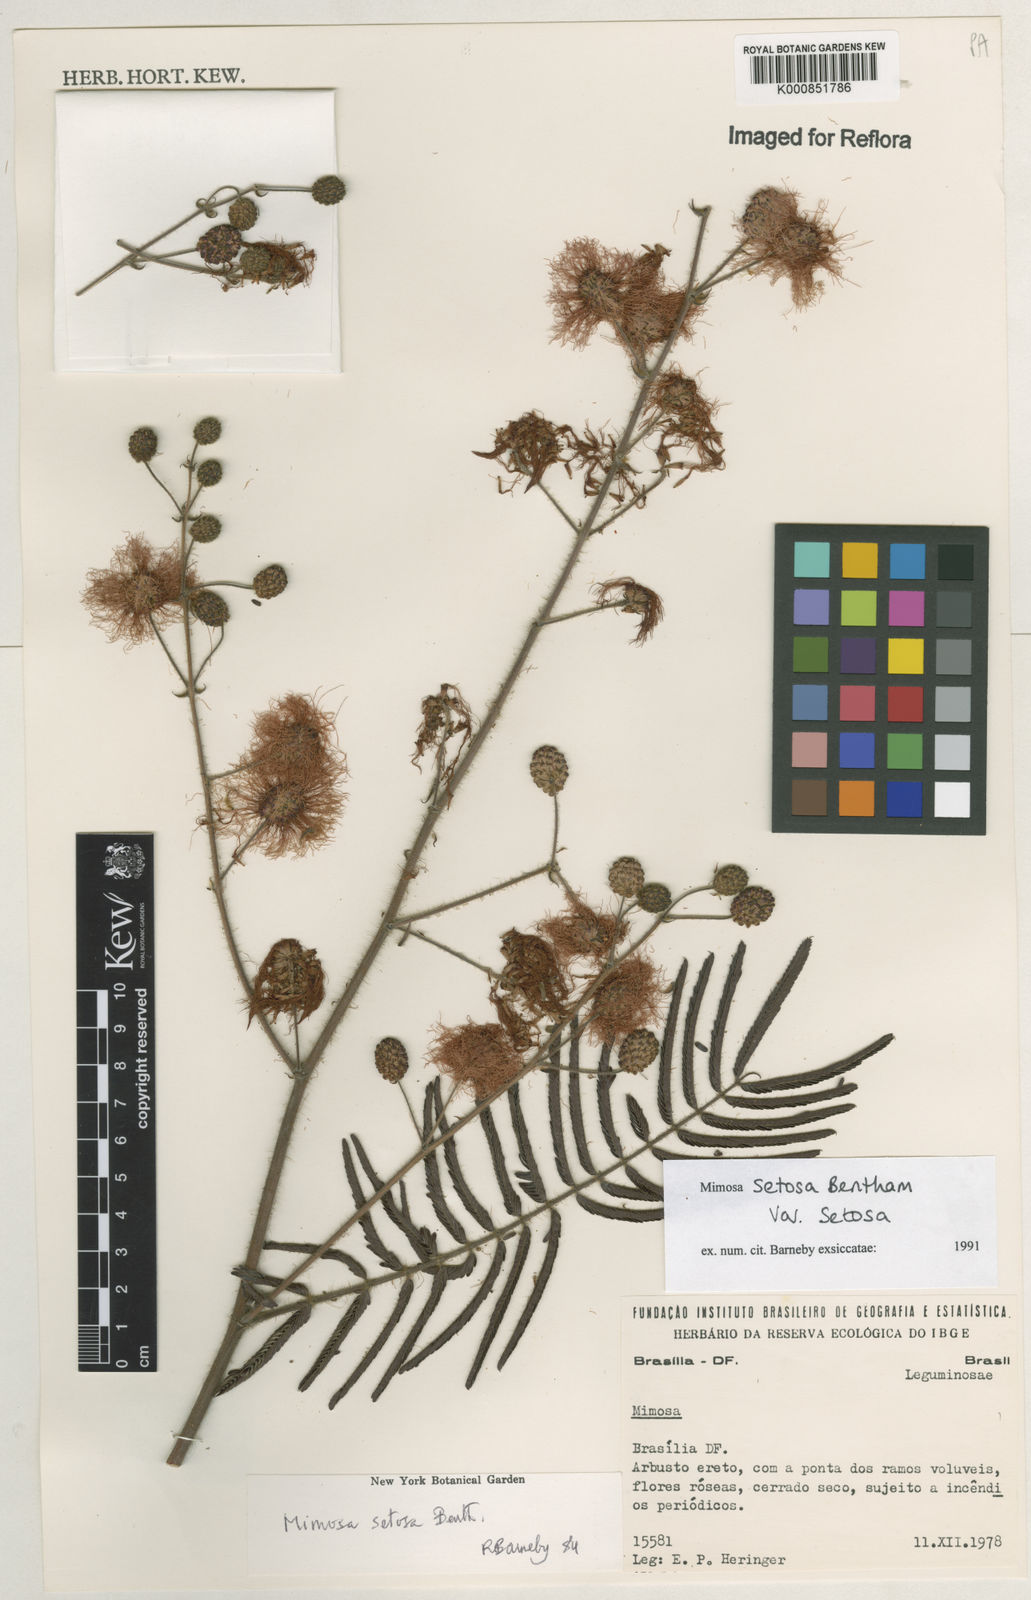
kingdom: Plantae
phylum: Tracheophyta
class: Magnoliopsida
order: Fabales
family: Fabaceae
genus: Mimosa
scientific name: Mimosa setosa
